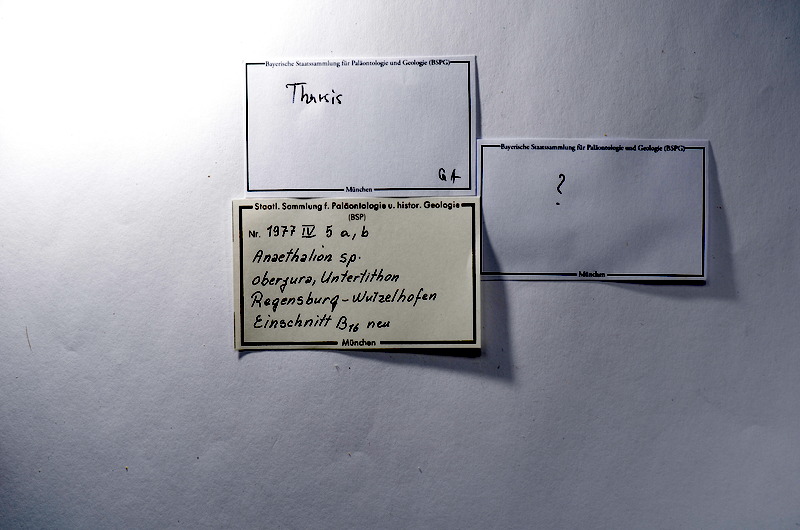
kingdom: Animalia
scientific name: Animalia
